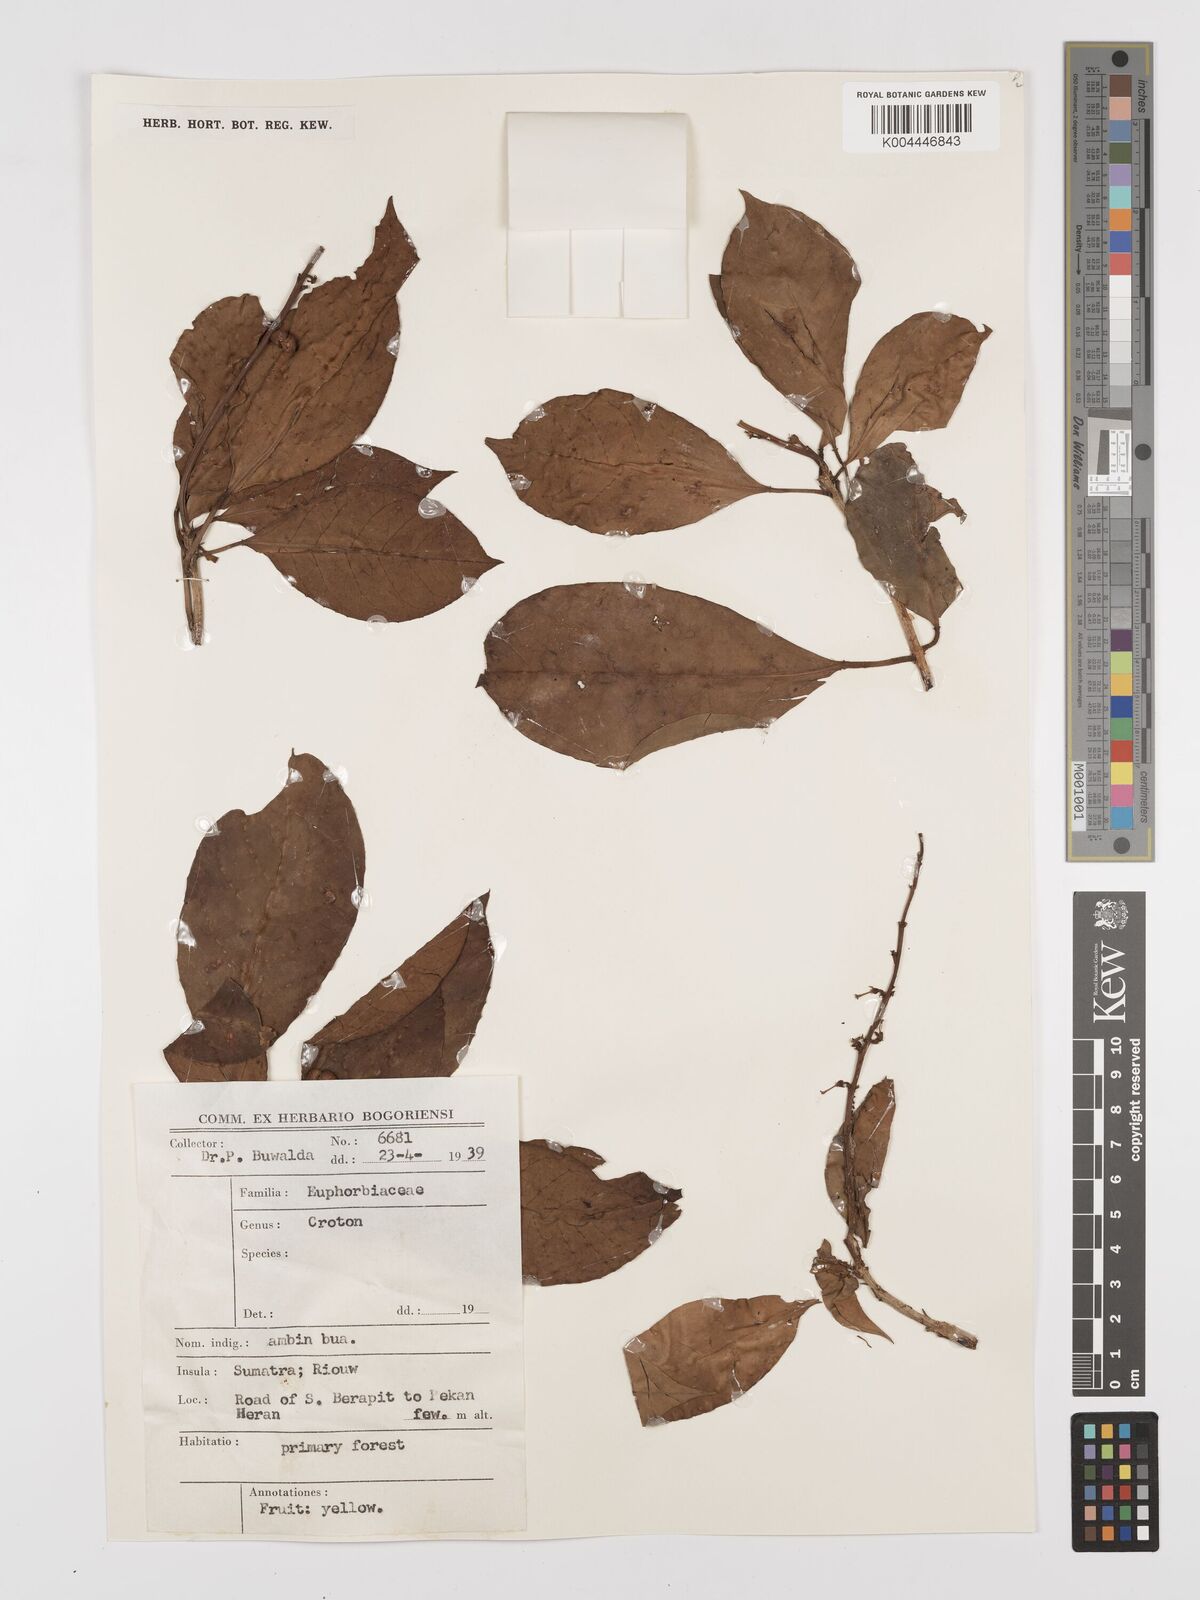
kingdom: Plantae
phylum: Tracheophyta
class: Magnoliopsida
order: Malpighiales
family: Euphorbiaceae
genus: Croton
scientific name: Croton oblongus
